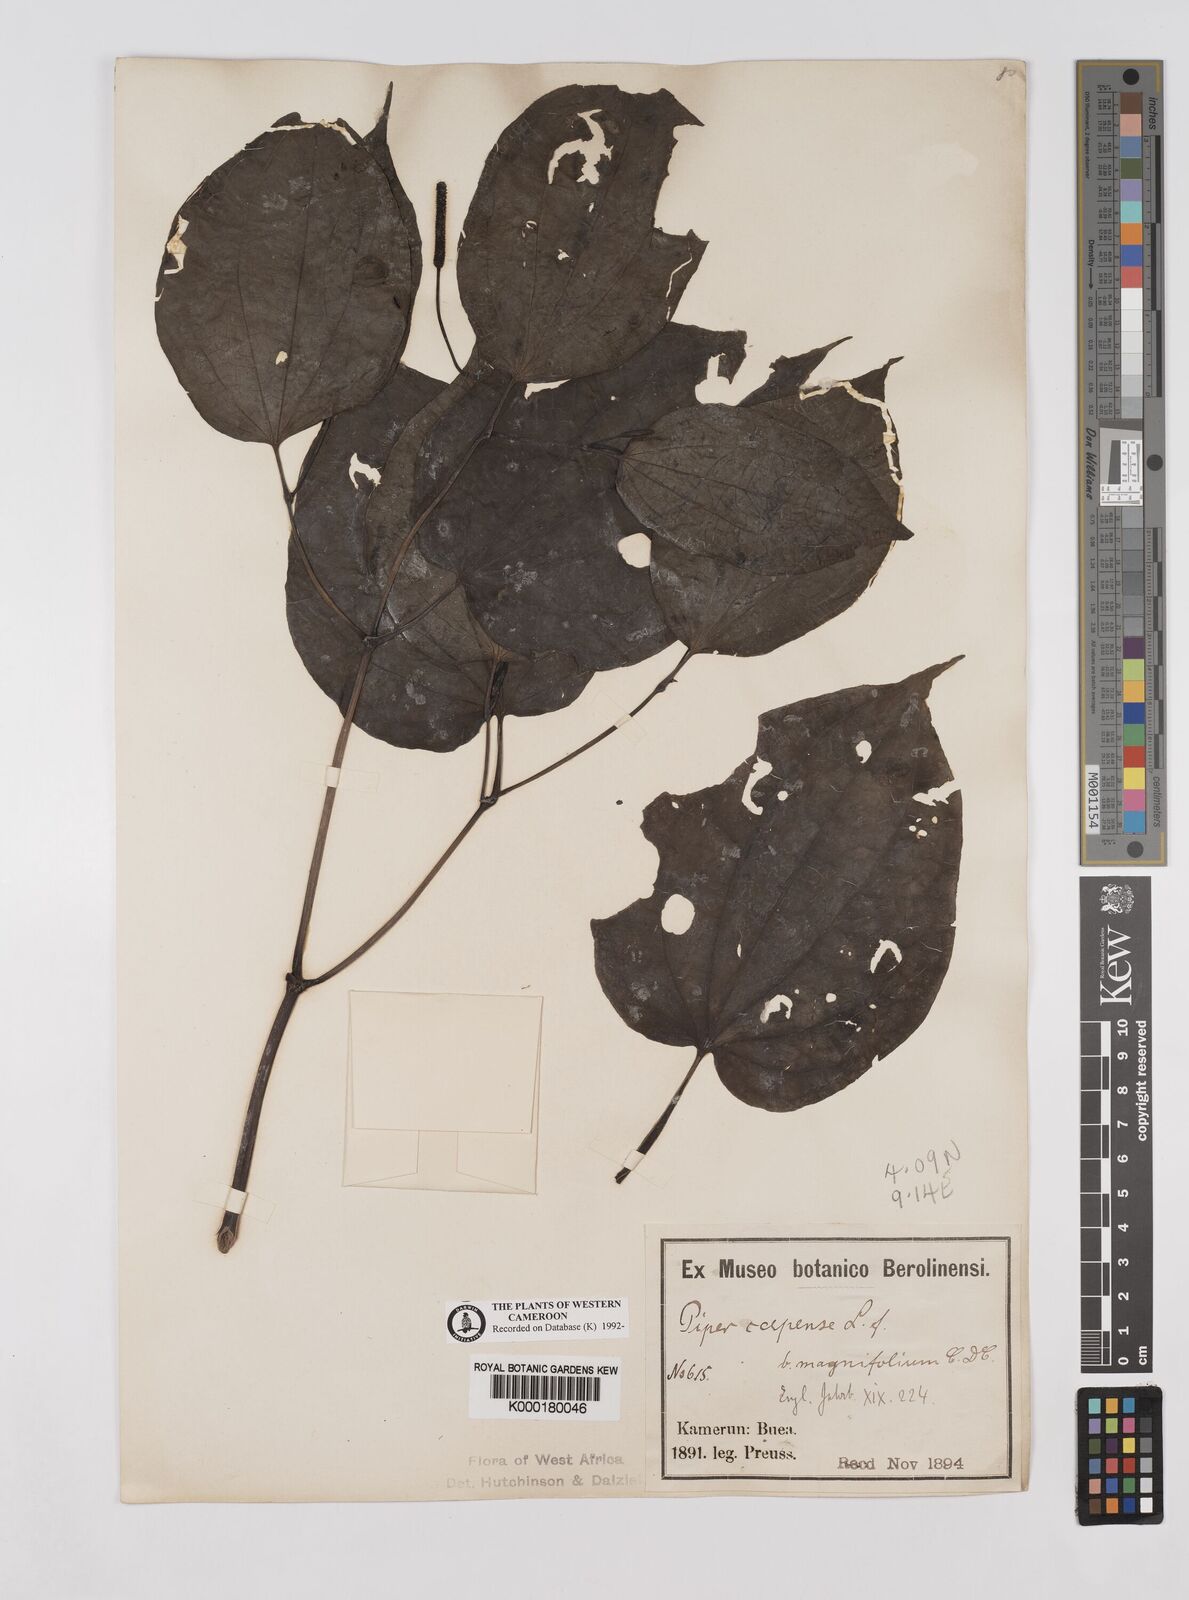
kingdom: Plantae
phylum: Tracheophyta
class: Magnoliopsida
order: Piperales
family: Piperaceae
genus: Piper
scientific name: Piper capense
